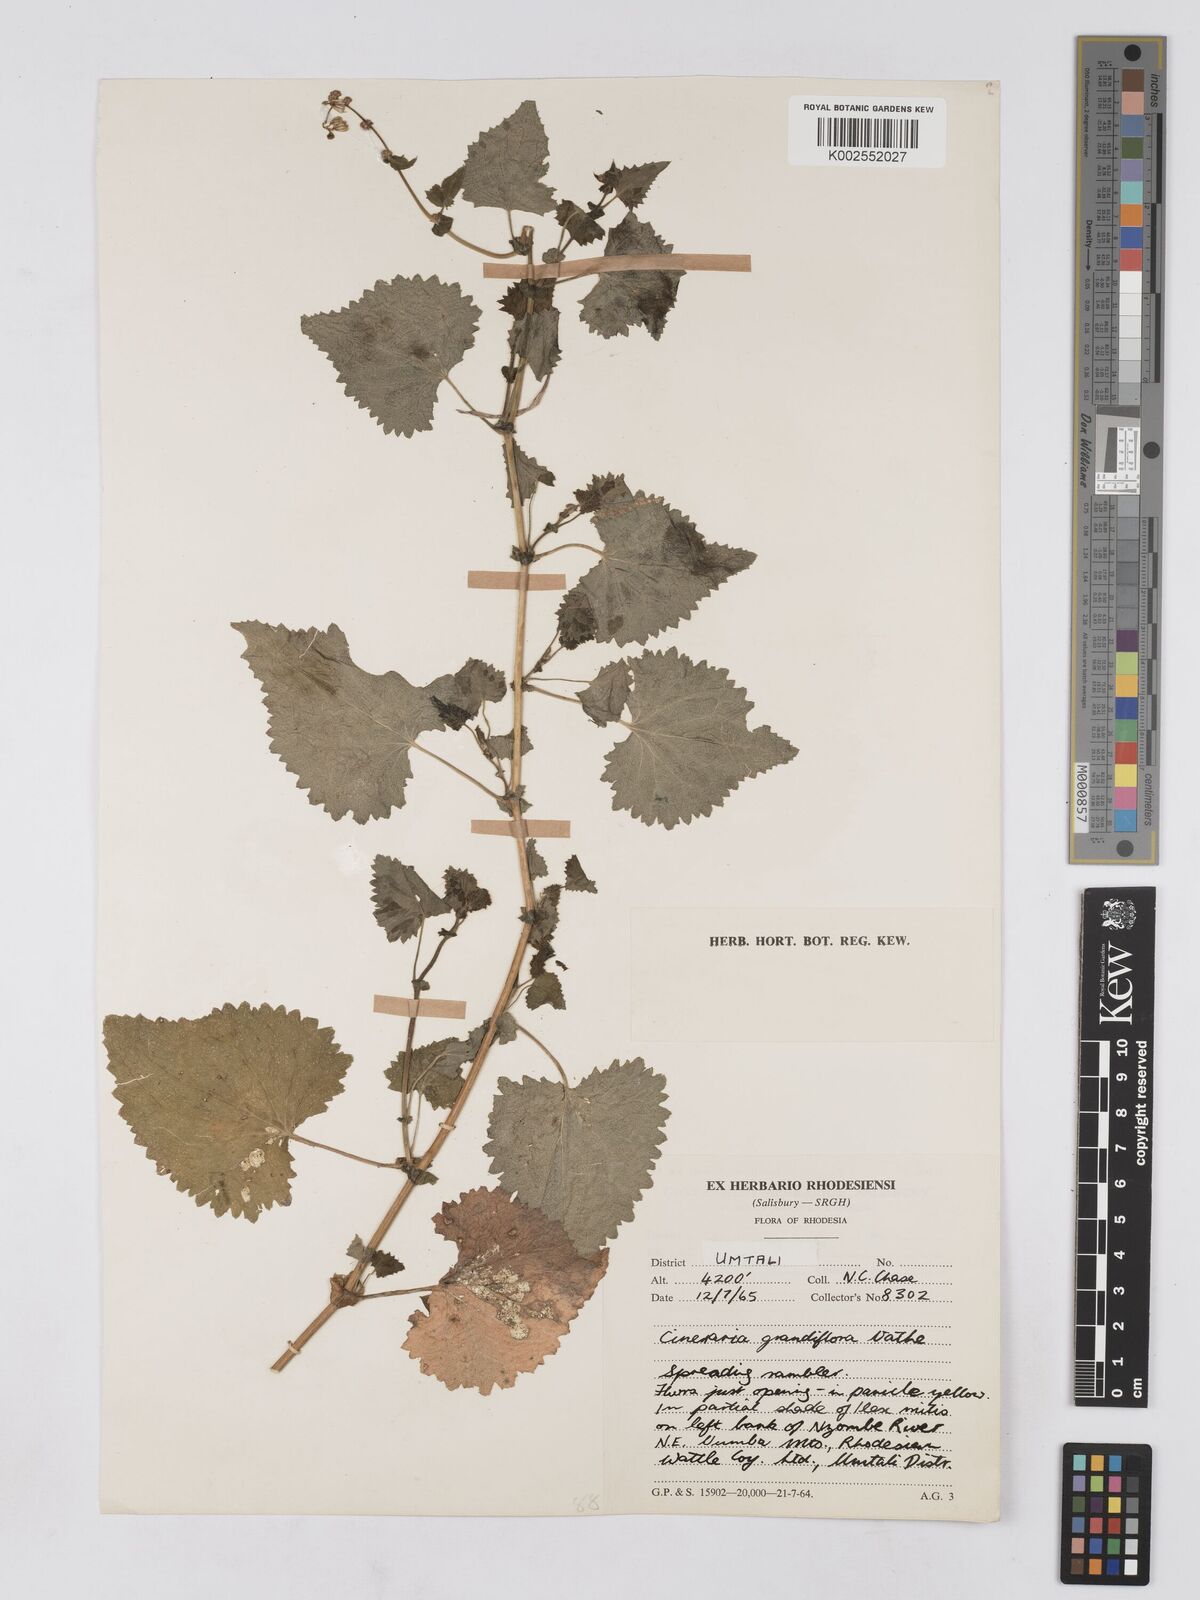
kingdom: Plantae
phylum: Tracheophyta
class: Magnoliopsida
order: Asterales
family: Asteraceae
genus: Cineraria
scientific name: Cineraria deltoidea
